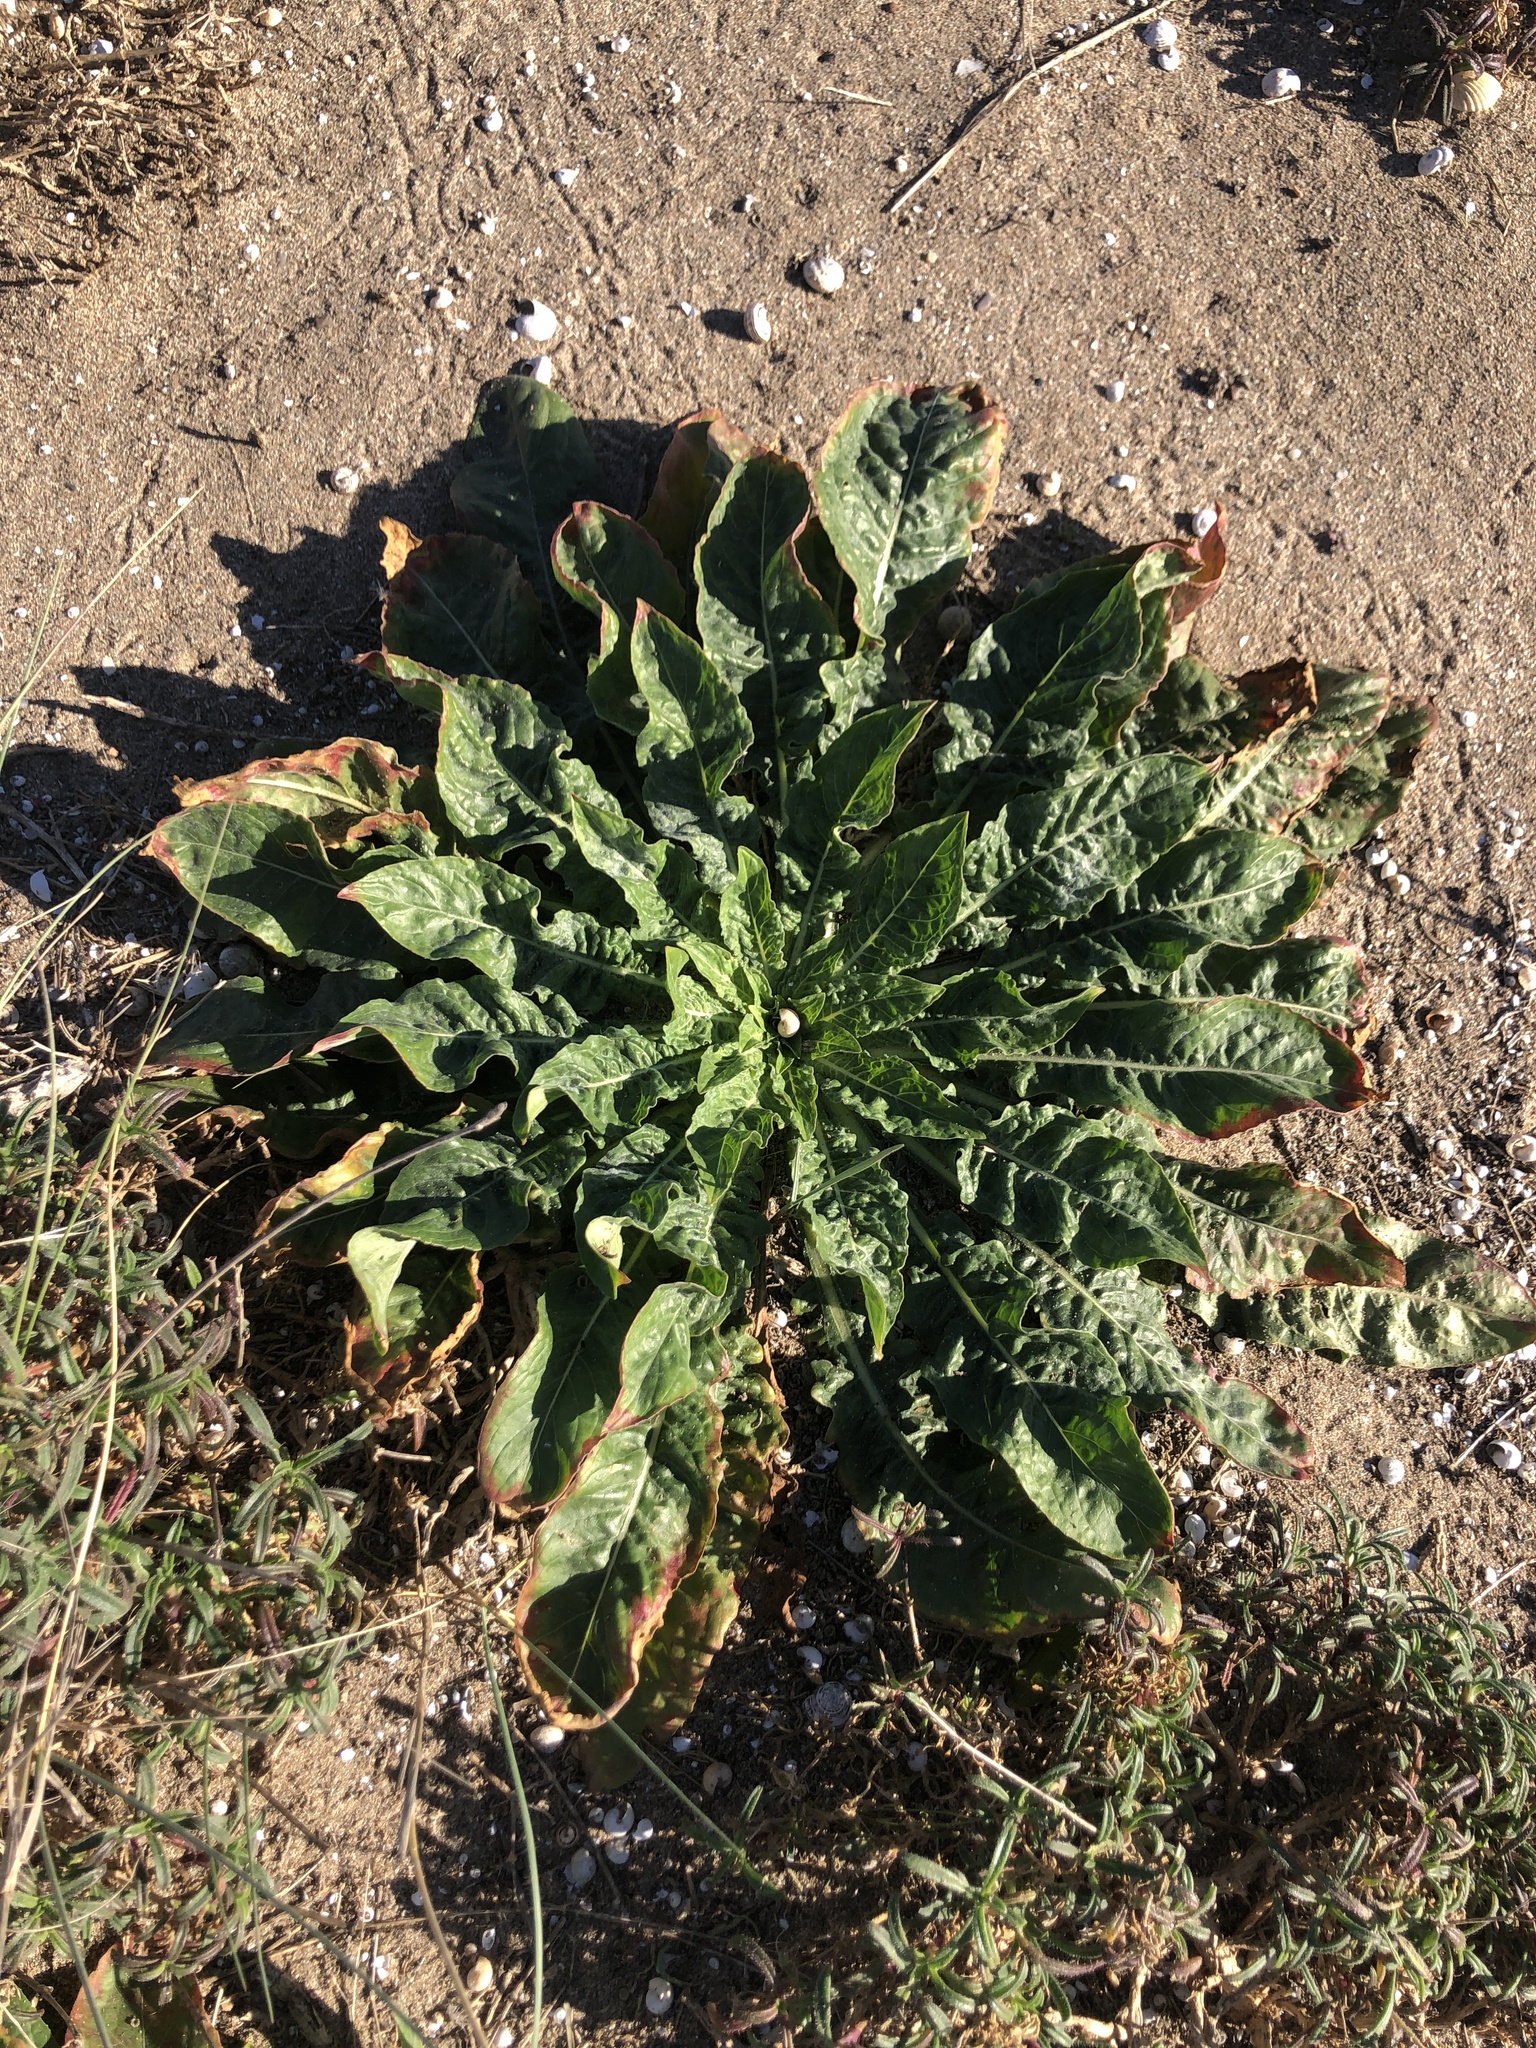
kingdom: Plantae
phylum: Tracheophyta
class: Magnoliopsida
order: Myrtales
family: Onagraceae
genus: Oenothera
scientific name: Oenothera glazioviana
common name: Large-flowered evening-primrose
